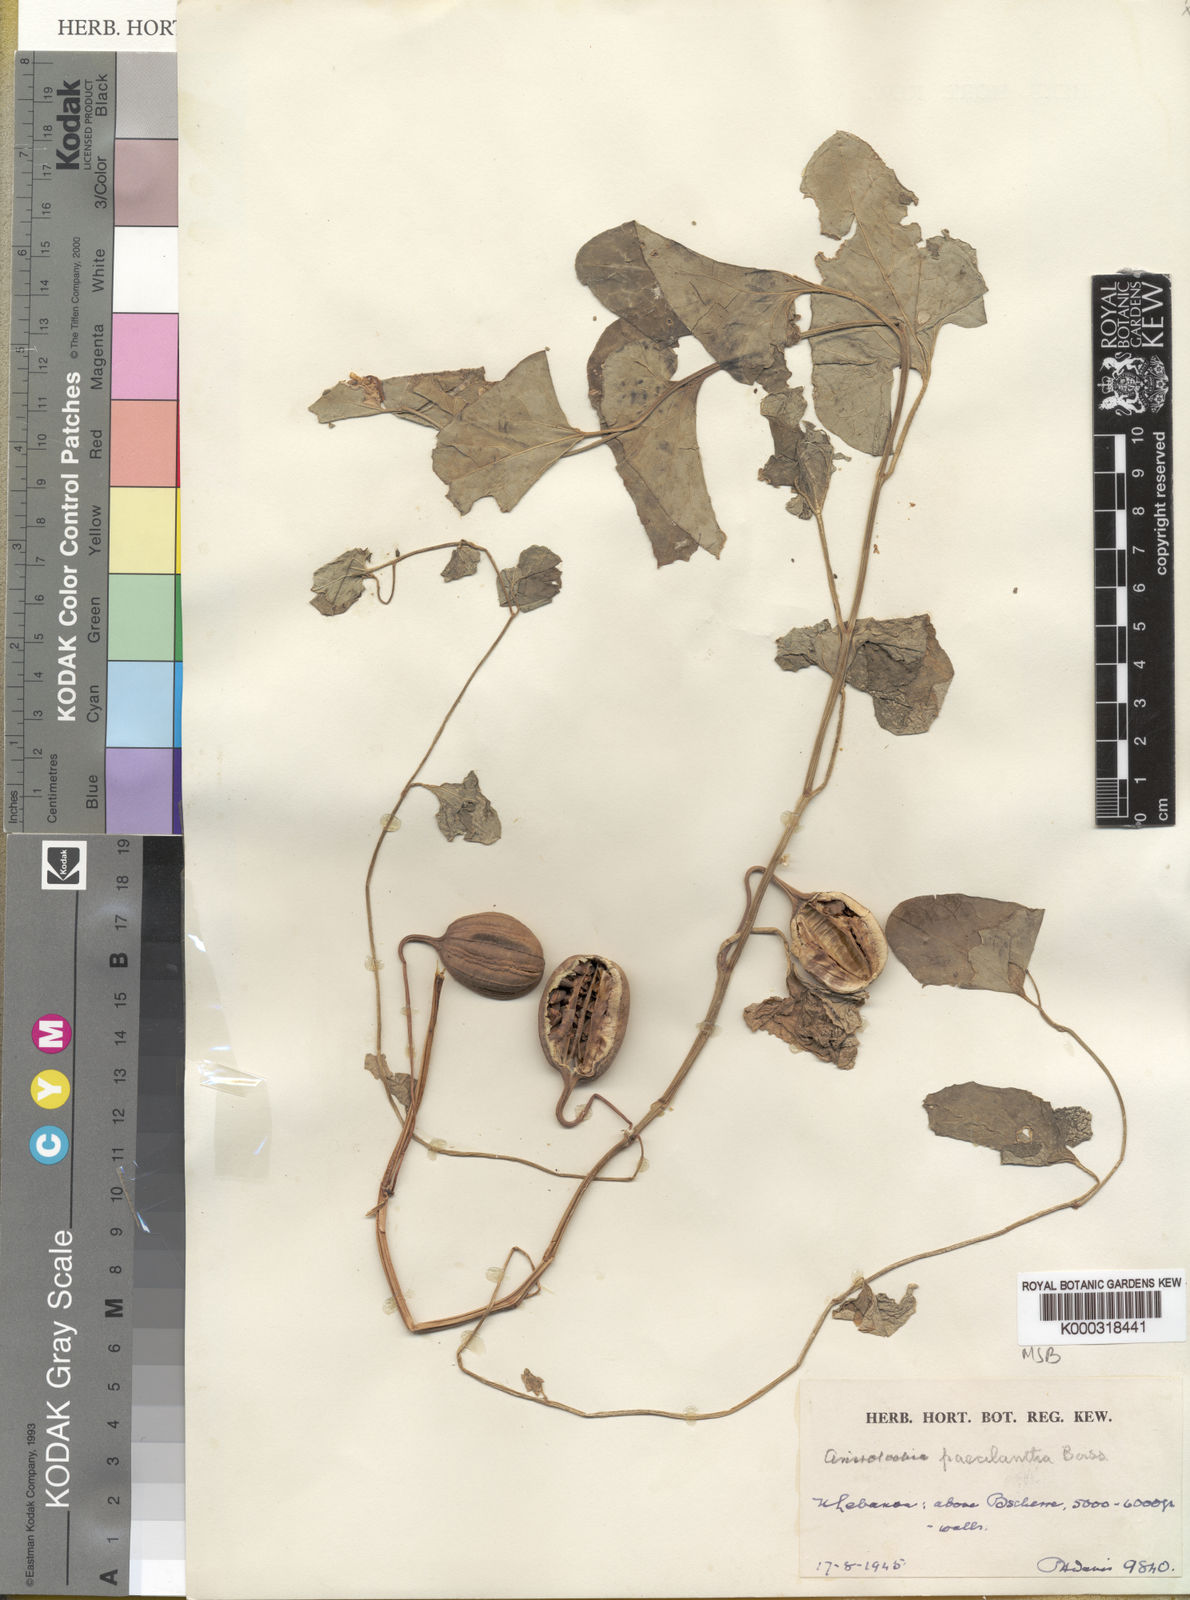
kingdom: Plantae
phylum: Tracheophyta
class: Magnoliopsida
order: Piperales
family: Aristolochiaceae
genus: Aristolochia
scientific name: Aristolochia paecilantha
